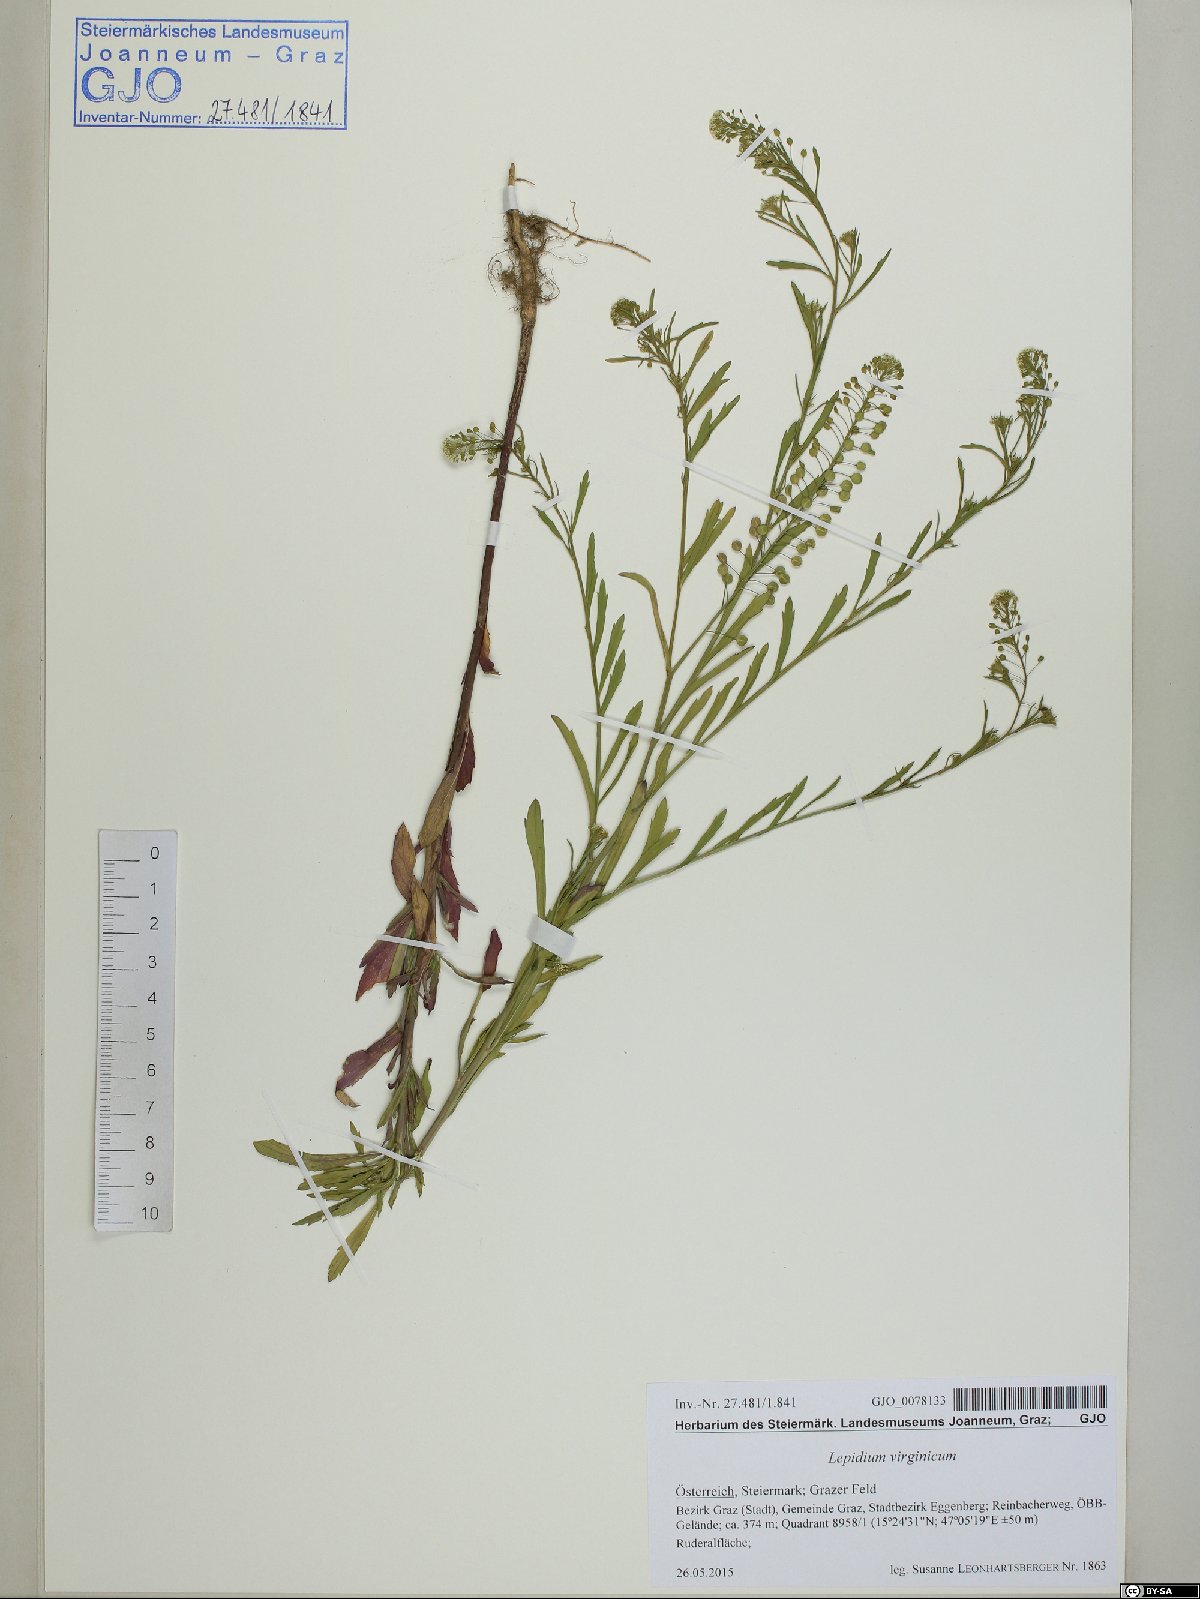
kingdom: Plantae
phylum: Tracheophyta
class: Magnoliopsida
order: Brassicales
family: Brassicaceae
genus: Lepidium
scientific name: Lepidium virginicum
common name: Least pepperwort
